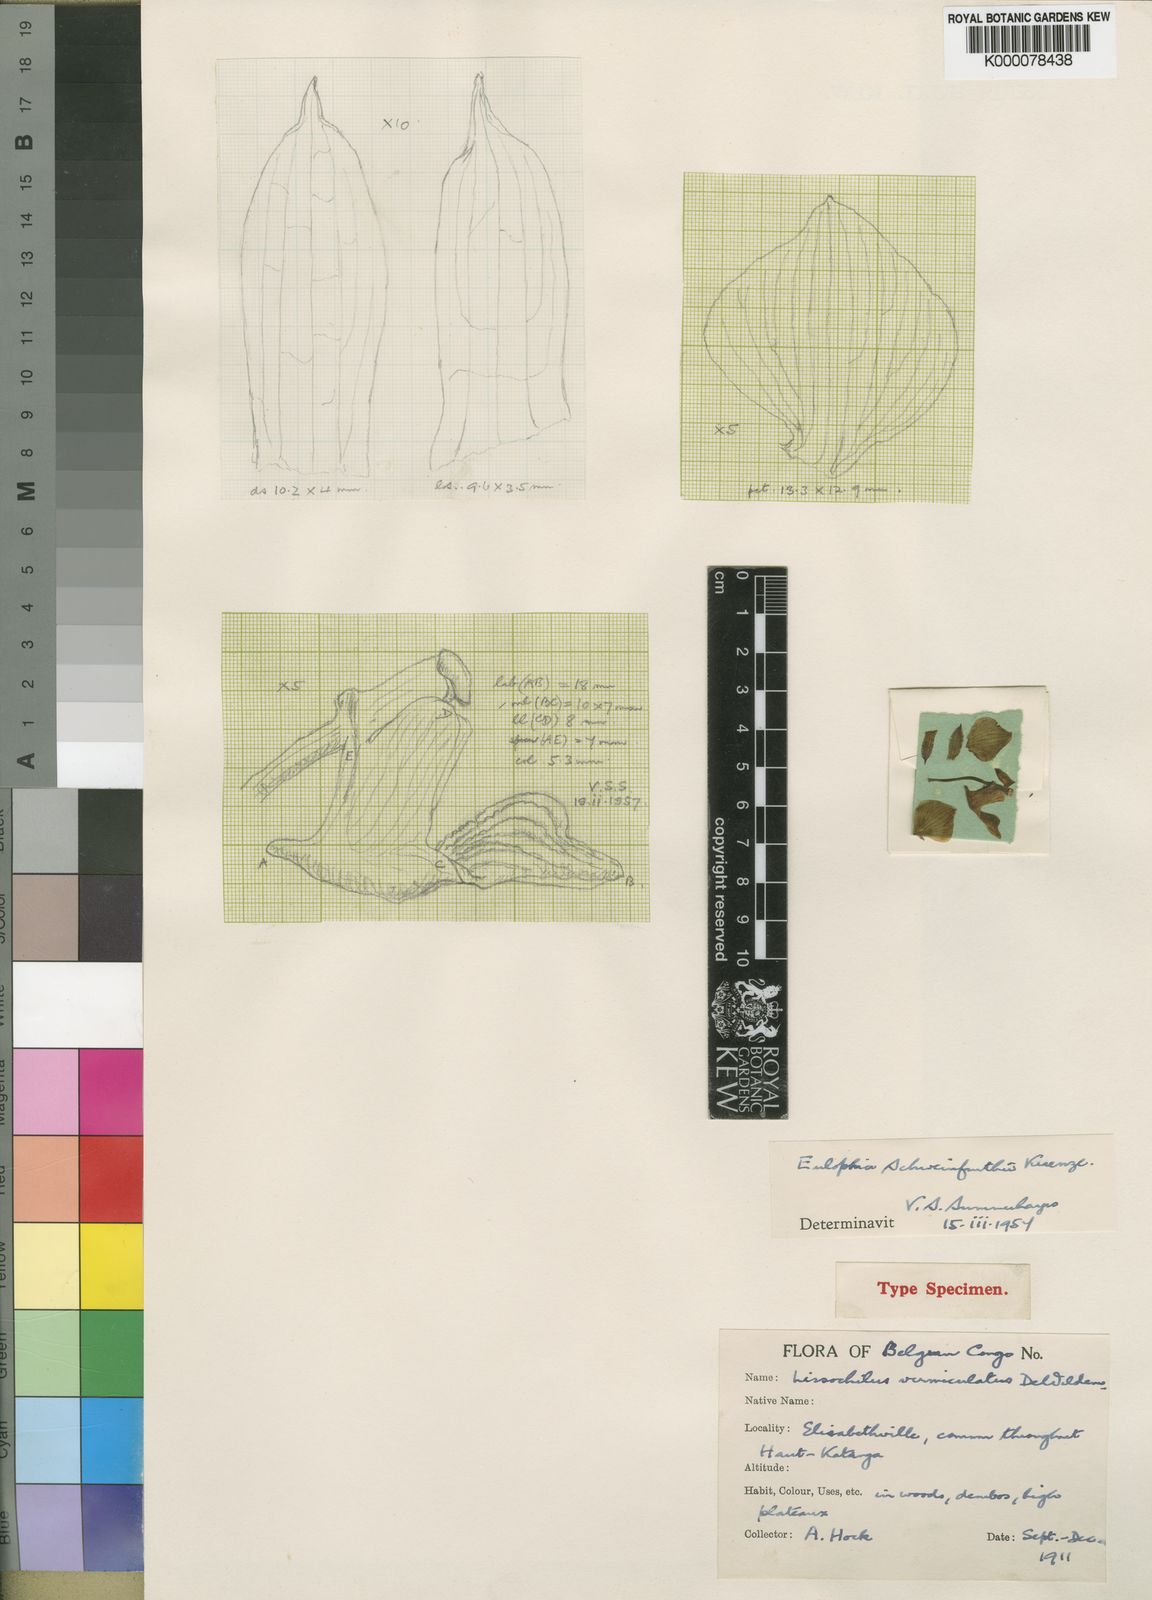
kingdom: Plantae
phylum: Tracheophyta
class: Liliopsida
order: Asparagales
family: Orchidaceae
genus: Eulophia
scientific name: Eulophia schweinfurthii
